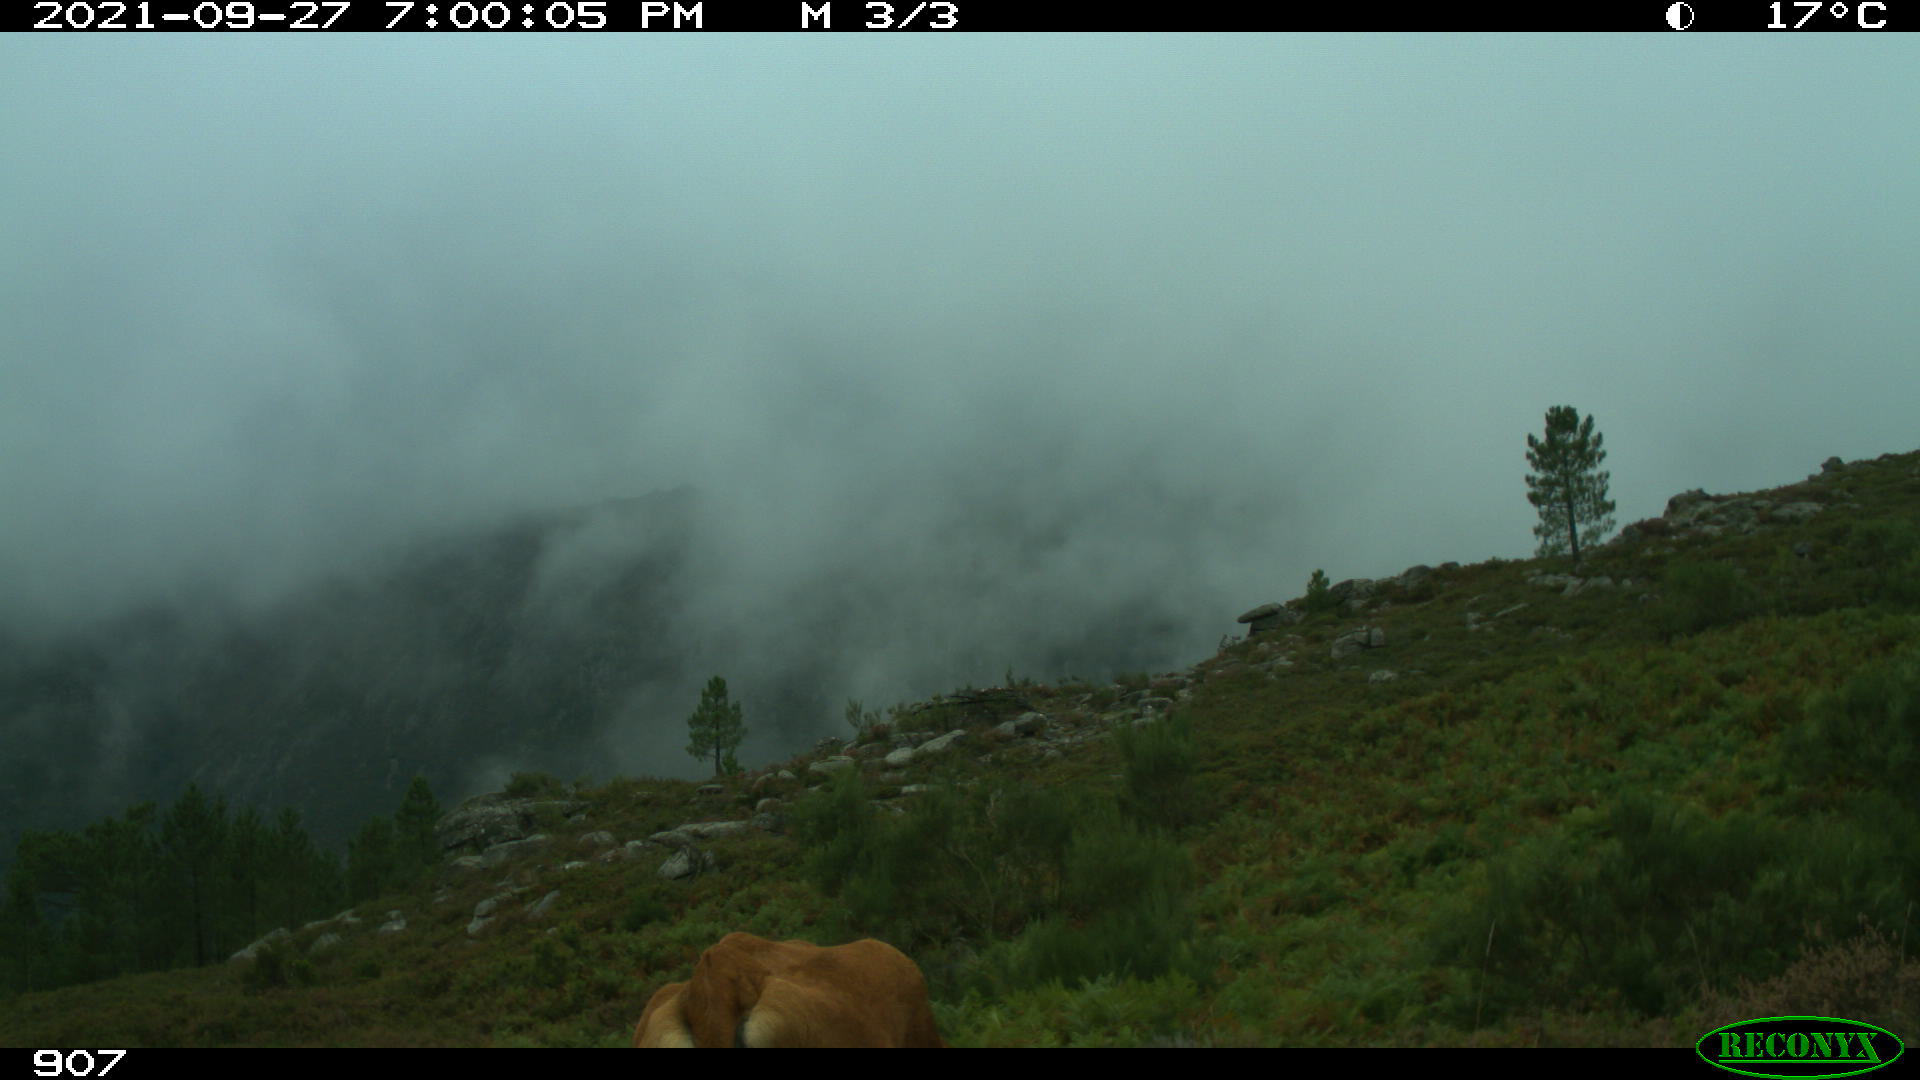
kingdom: Animalia
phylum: Chordata
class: Mammalia
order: Artiodactyla
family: Bovidae
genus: Bos
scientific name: Bos taurus
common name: Domesticated cattle
